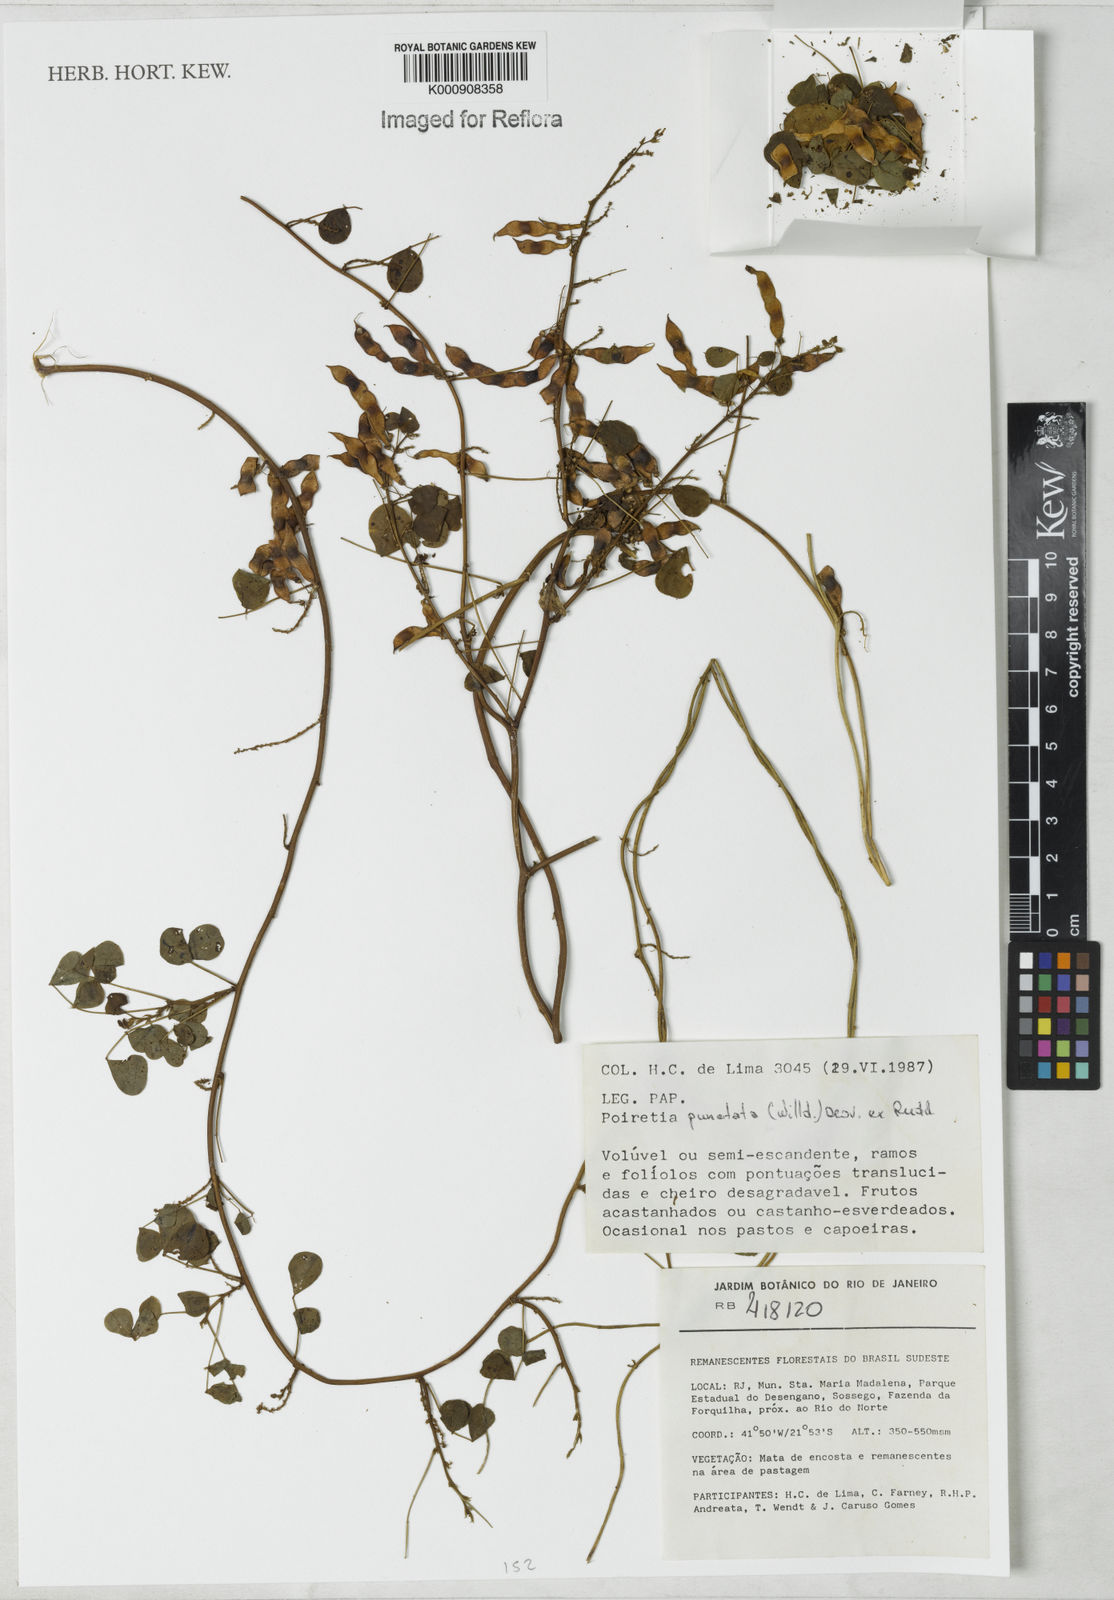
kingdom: Plantae
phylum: Tracheophyta
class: Magnoliopsida
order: Fabales
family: Fabaceae
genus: Poiretia
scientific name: Poiretia punctata
